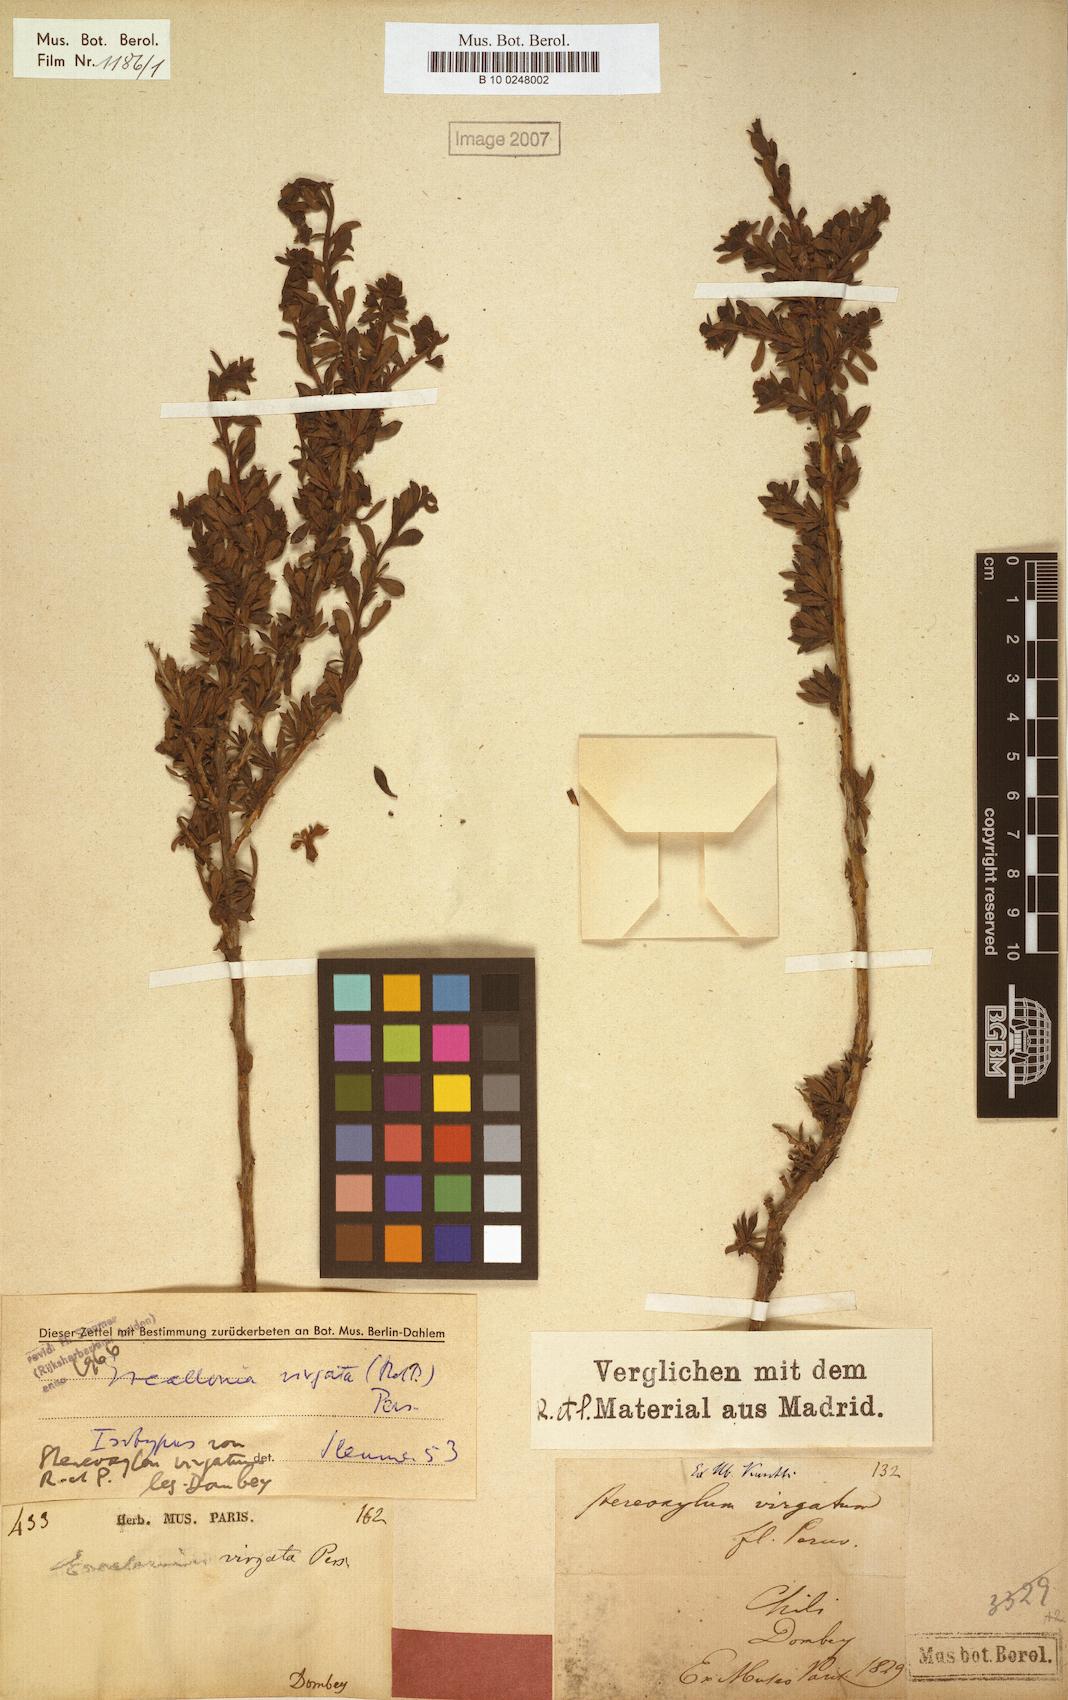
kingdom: Plantae
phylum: Tracheophyta
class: Magnoliopsida
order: Escalloniales
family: Escalloniaceae
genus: Escallonia
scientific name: Escallonia virgata
